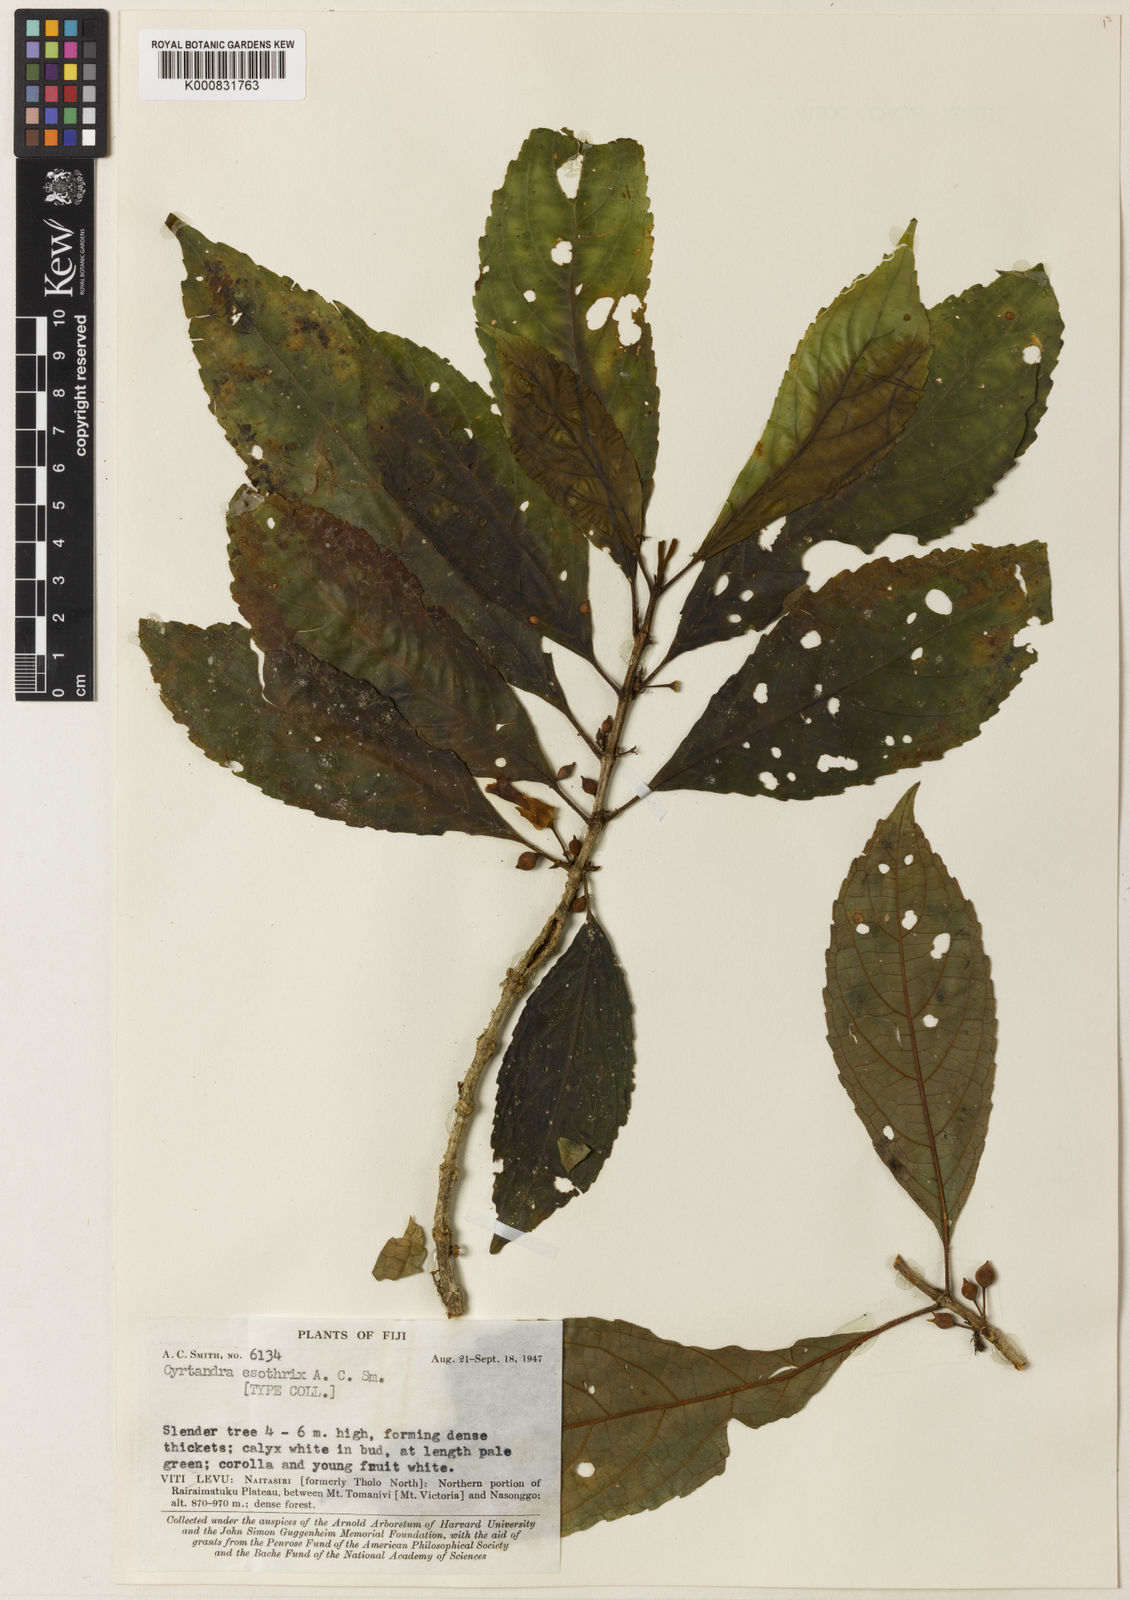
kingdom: Plantae
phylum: Tracheophyta
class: Magnoliopsida
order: Lamiales
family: Gesneriaceae
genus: Cyrtandra
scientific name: Cyrtandra esothrix
